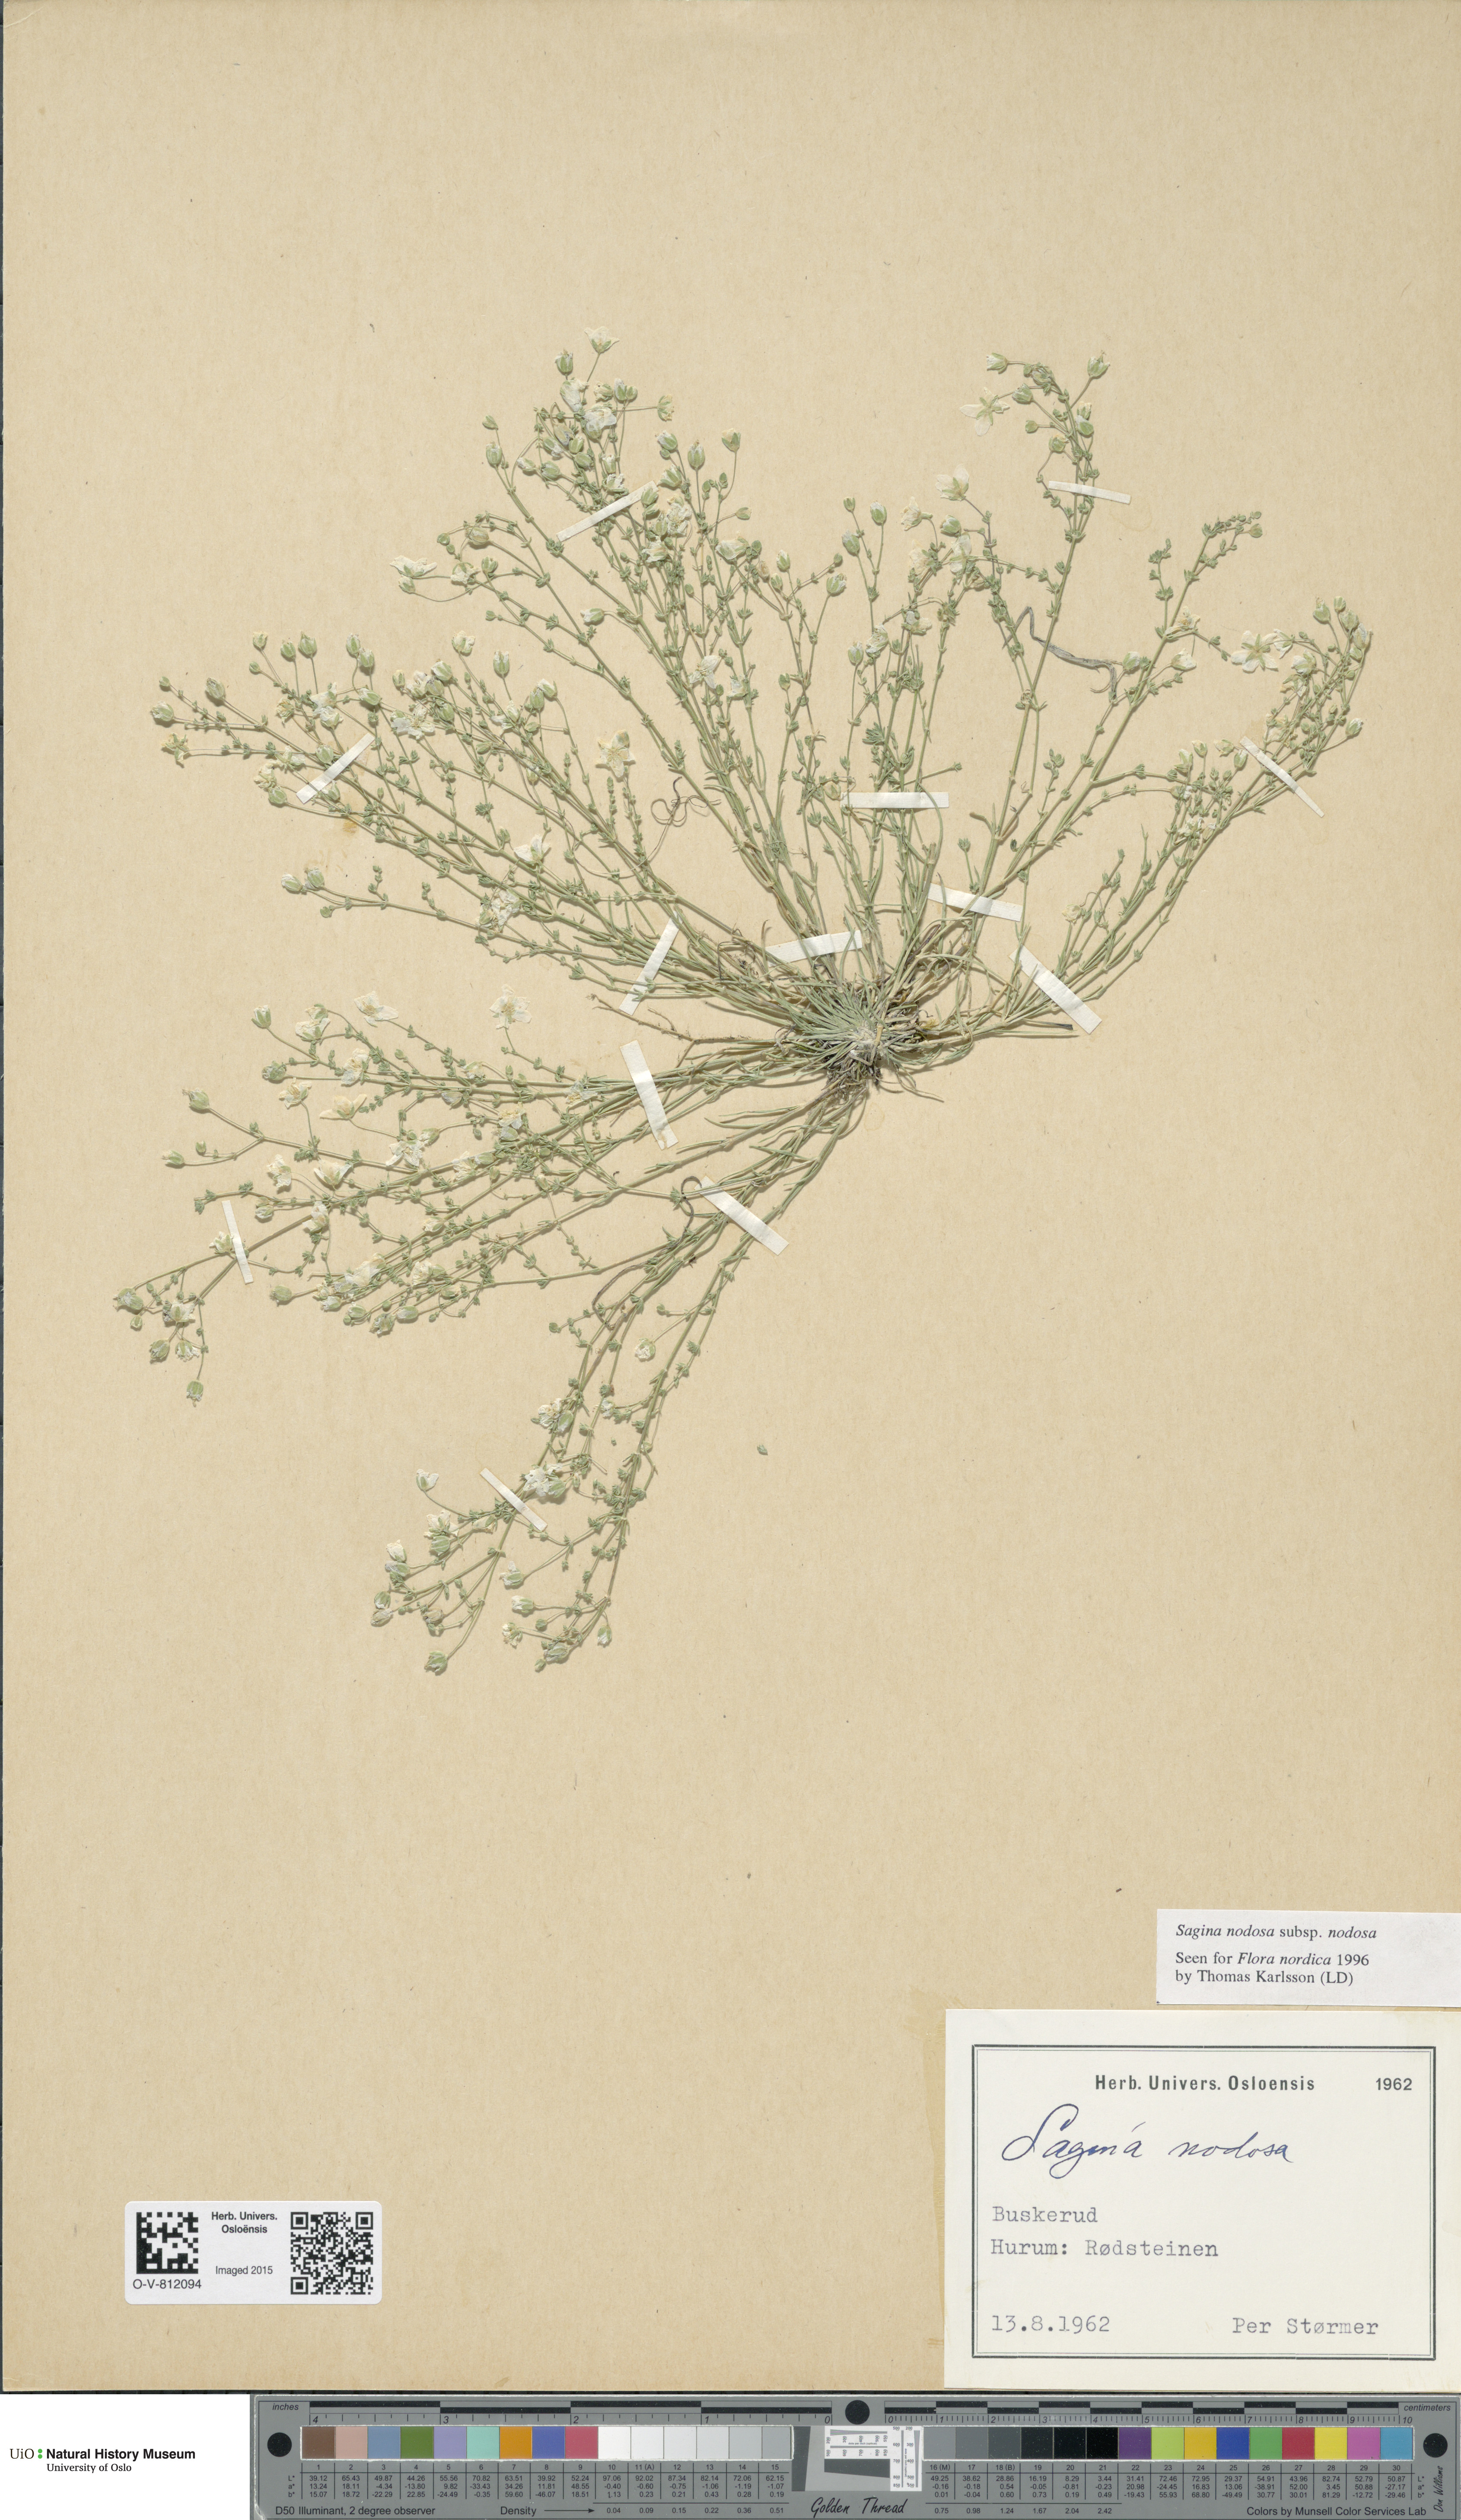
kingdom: Plantae
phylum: Tracheophyta
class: Magnoliopsida
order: Caryophyllales
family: Caryophyllaceae
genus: Sagina
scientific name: Sagina nodosa
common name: Knotted pearlwort
